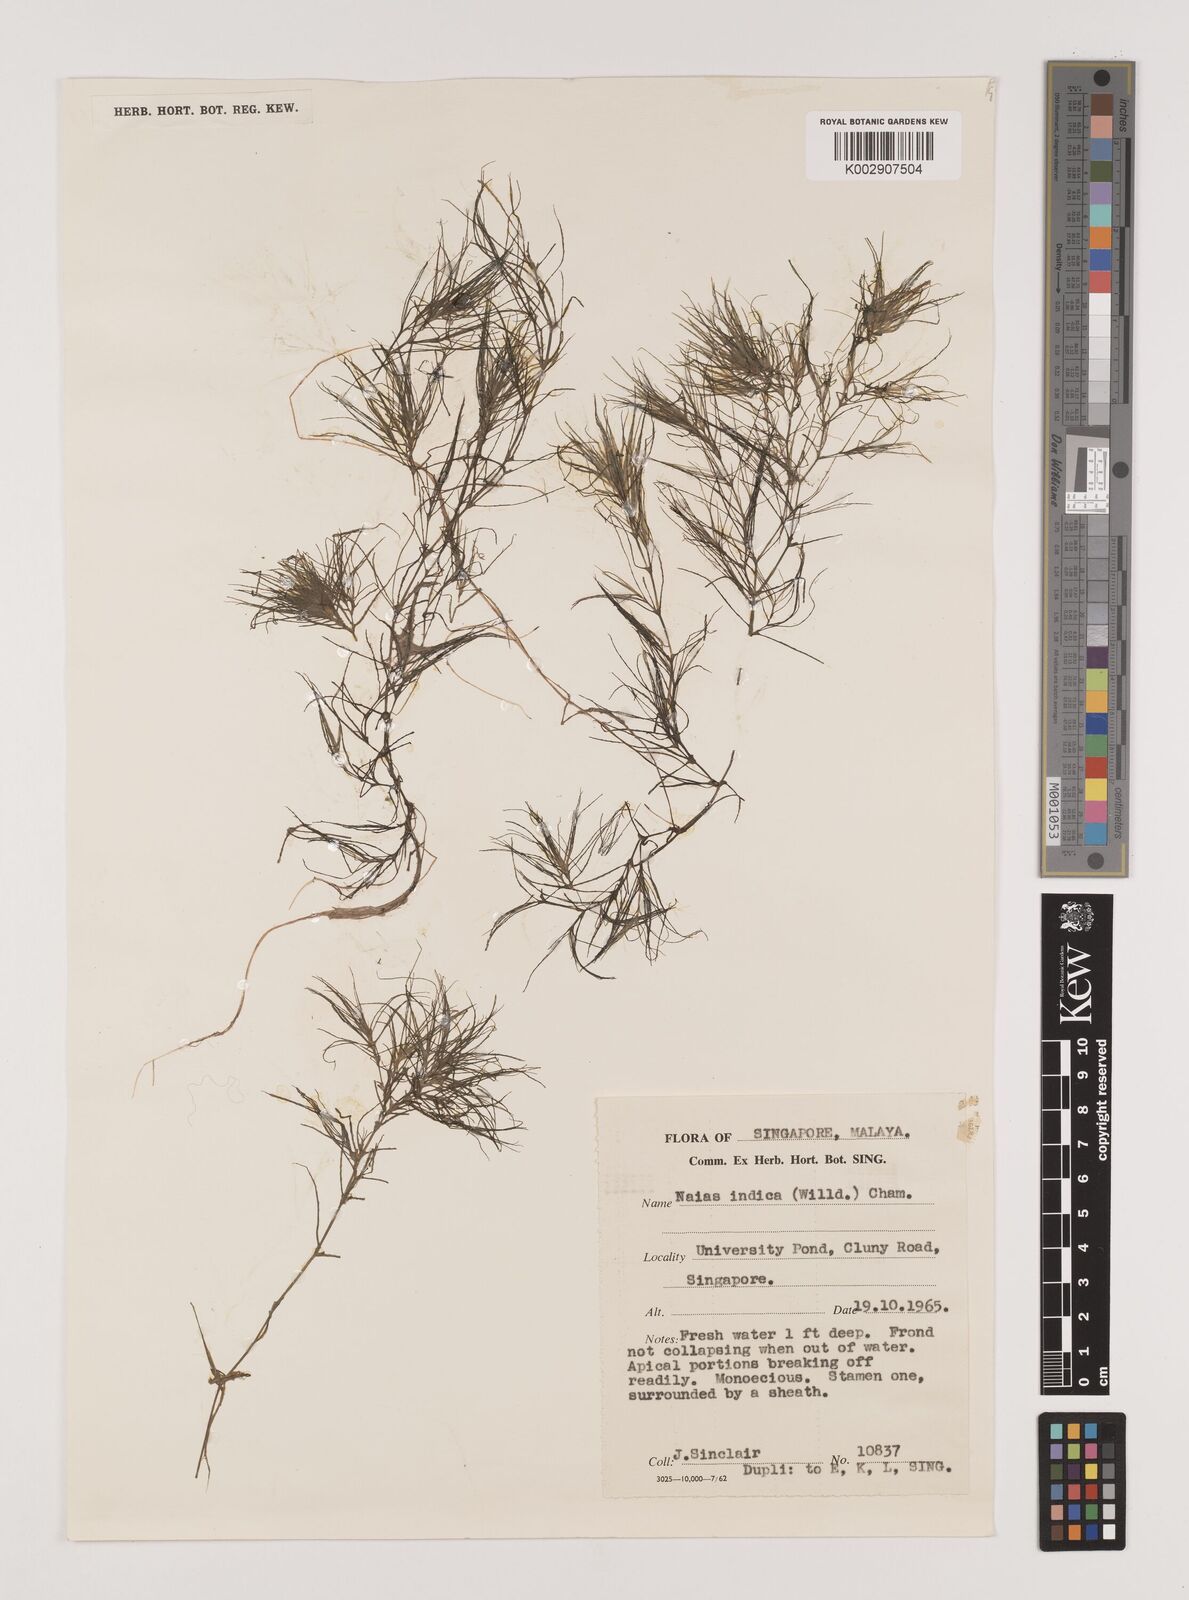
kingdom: Plantae
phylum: Tracheophyta
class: Liliopsida
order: Alismatales
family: Hydrocharitaceae
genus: Najas
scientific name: Najas indica
